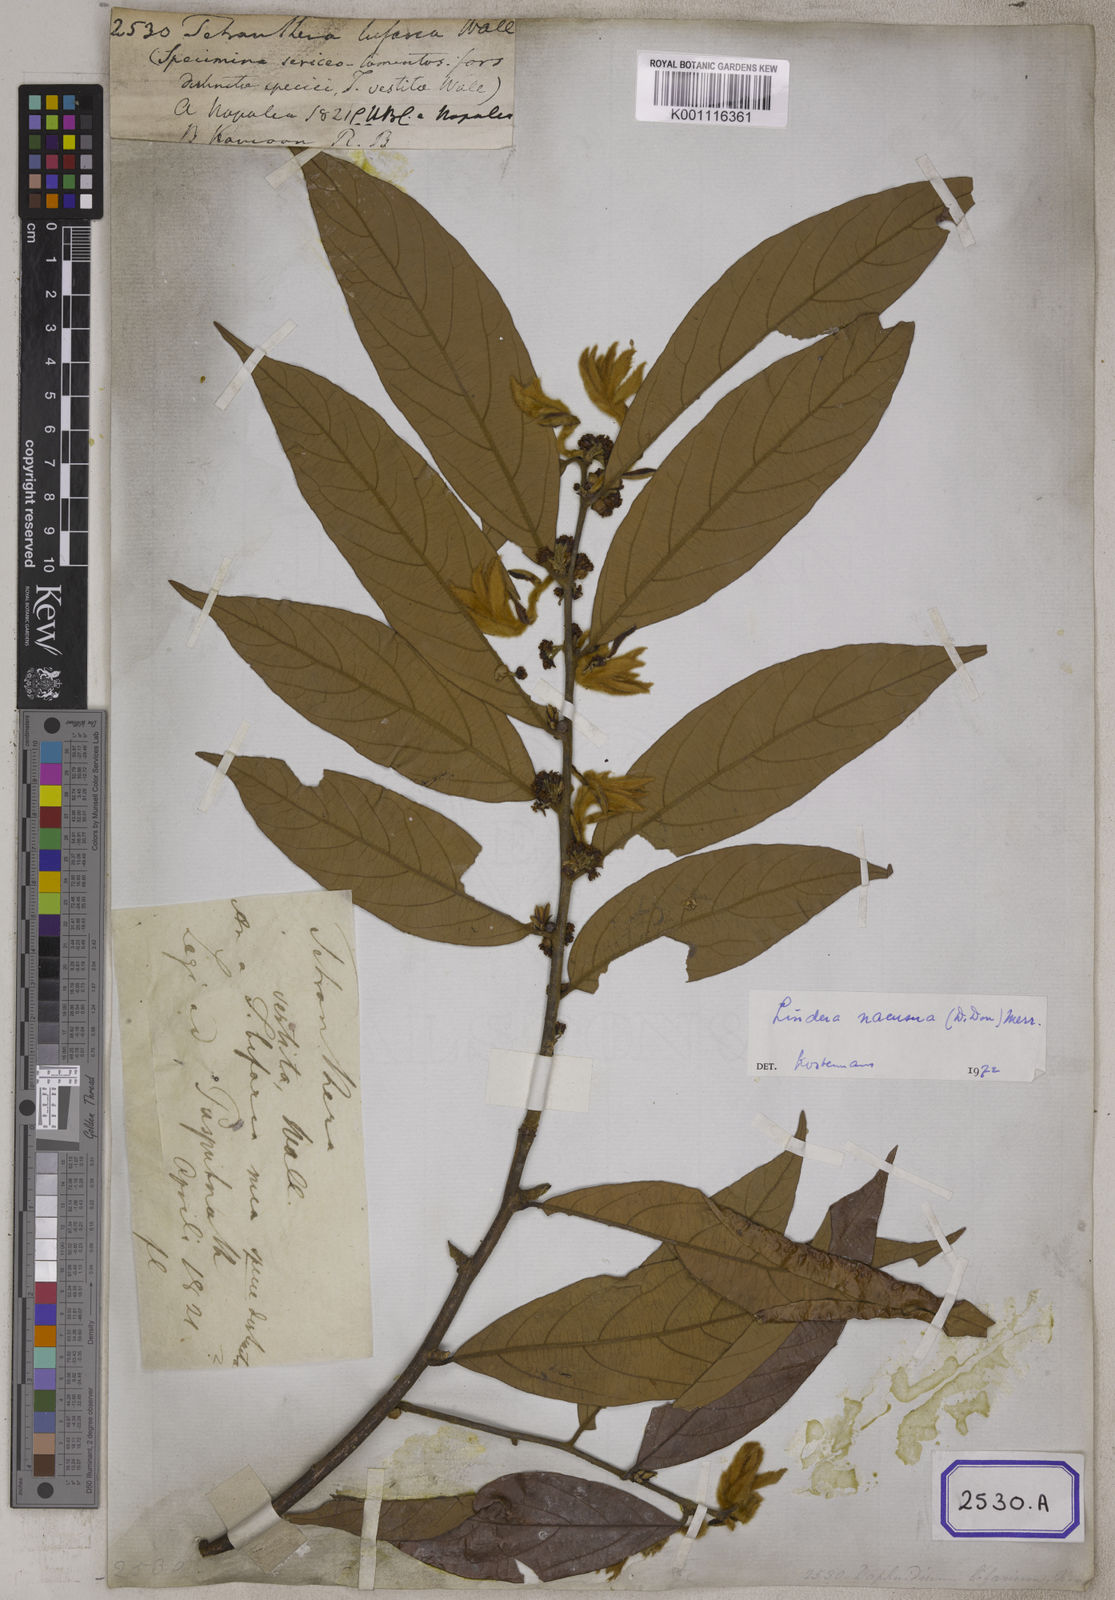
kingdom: Plantae
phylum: Tracheophyta
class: Magnoliopsida
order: Laurales
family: Lauraceae
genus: Lindera
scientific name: Lindera nacusua
